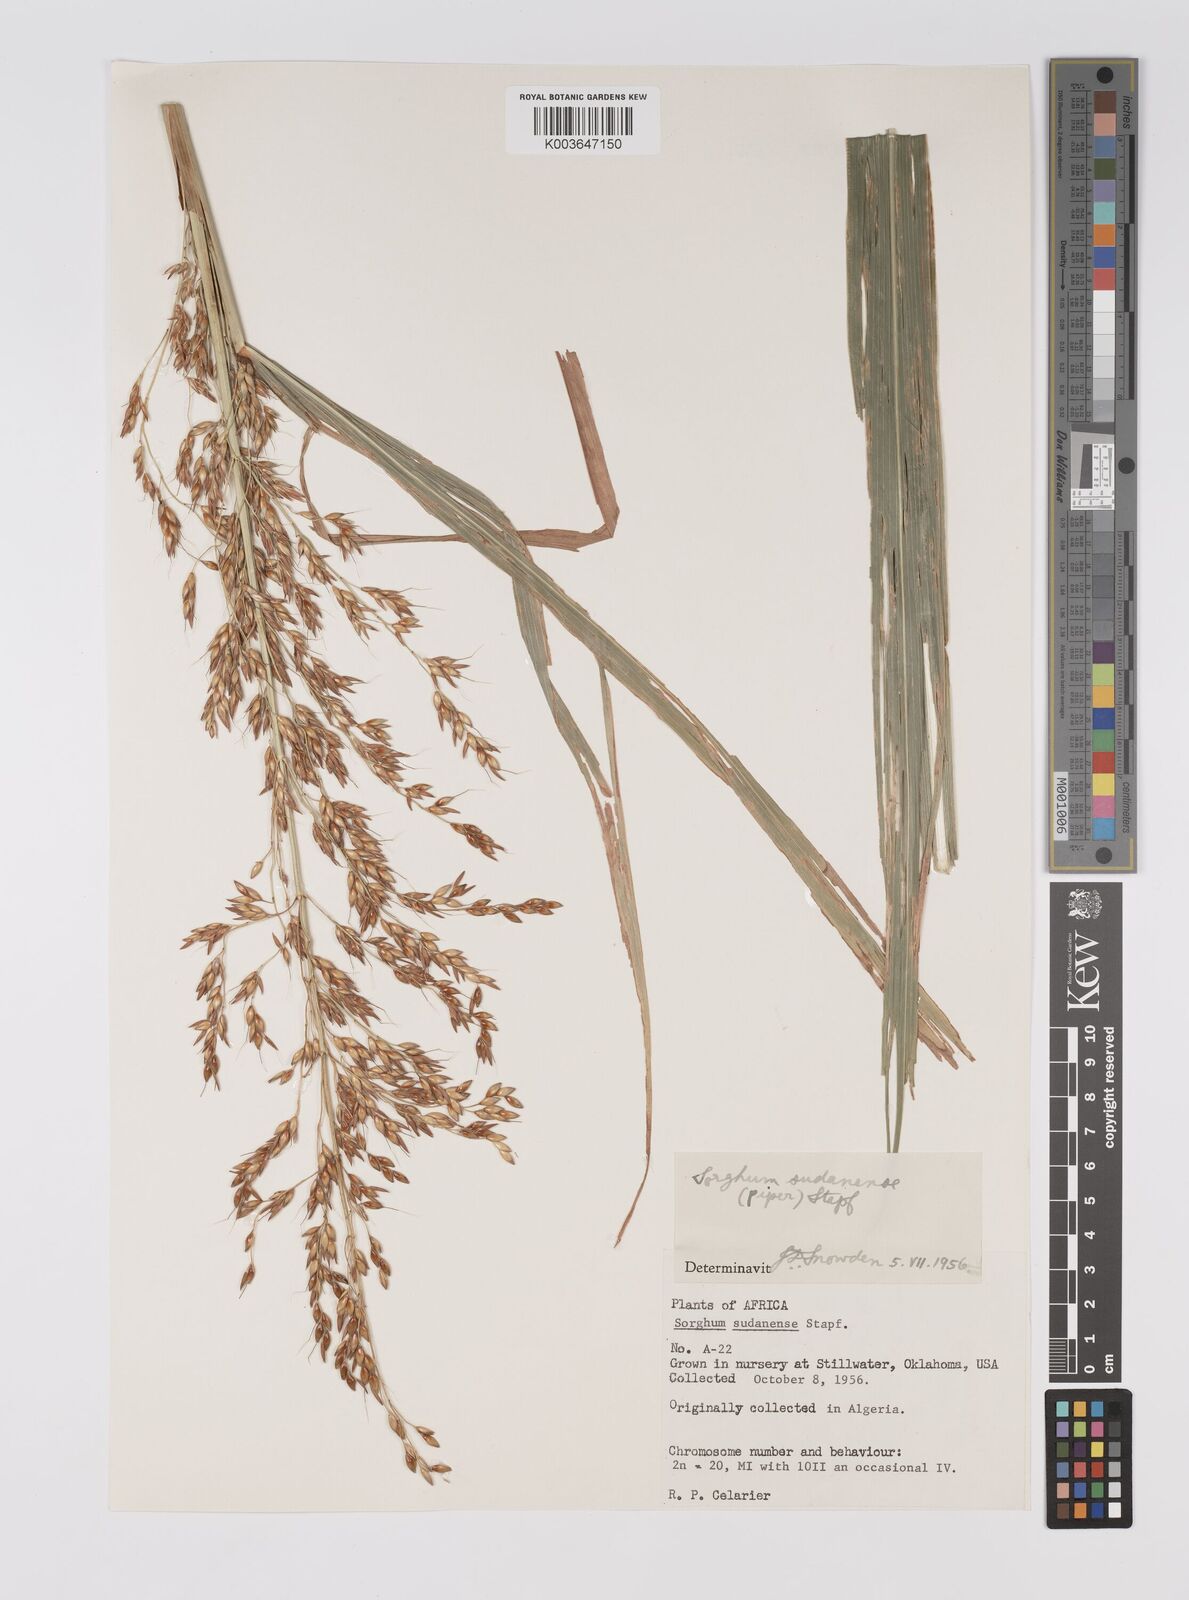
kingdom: Plantae
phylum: Tracheophyta
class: Liliopsida
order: Poales
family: Poaceae
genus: Sorghum
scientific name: Sorghum drummondii
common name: Sudangrass
